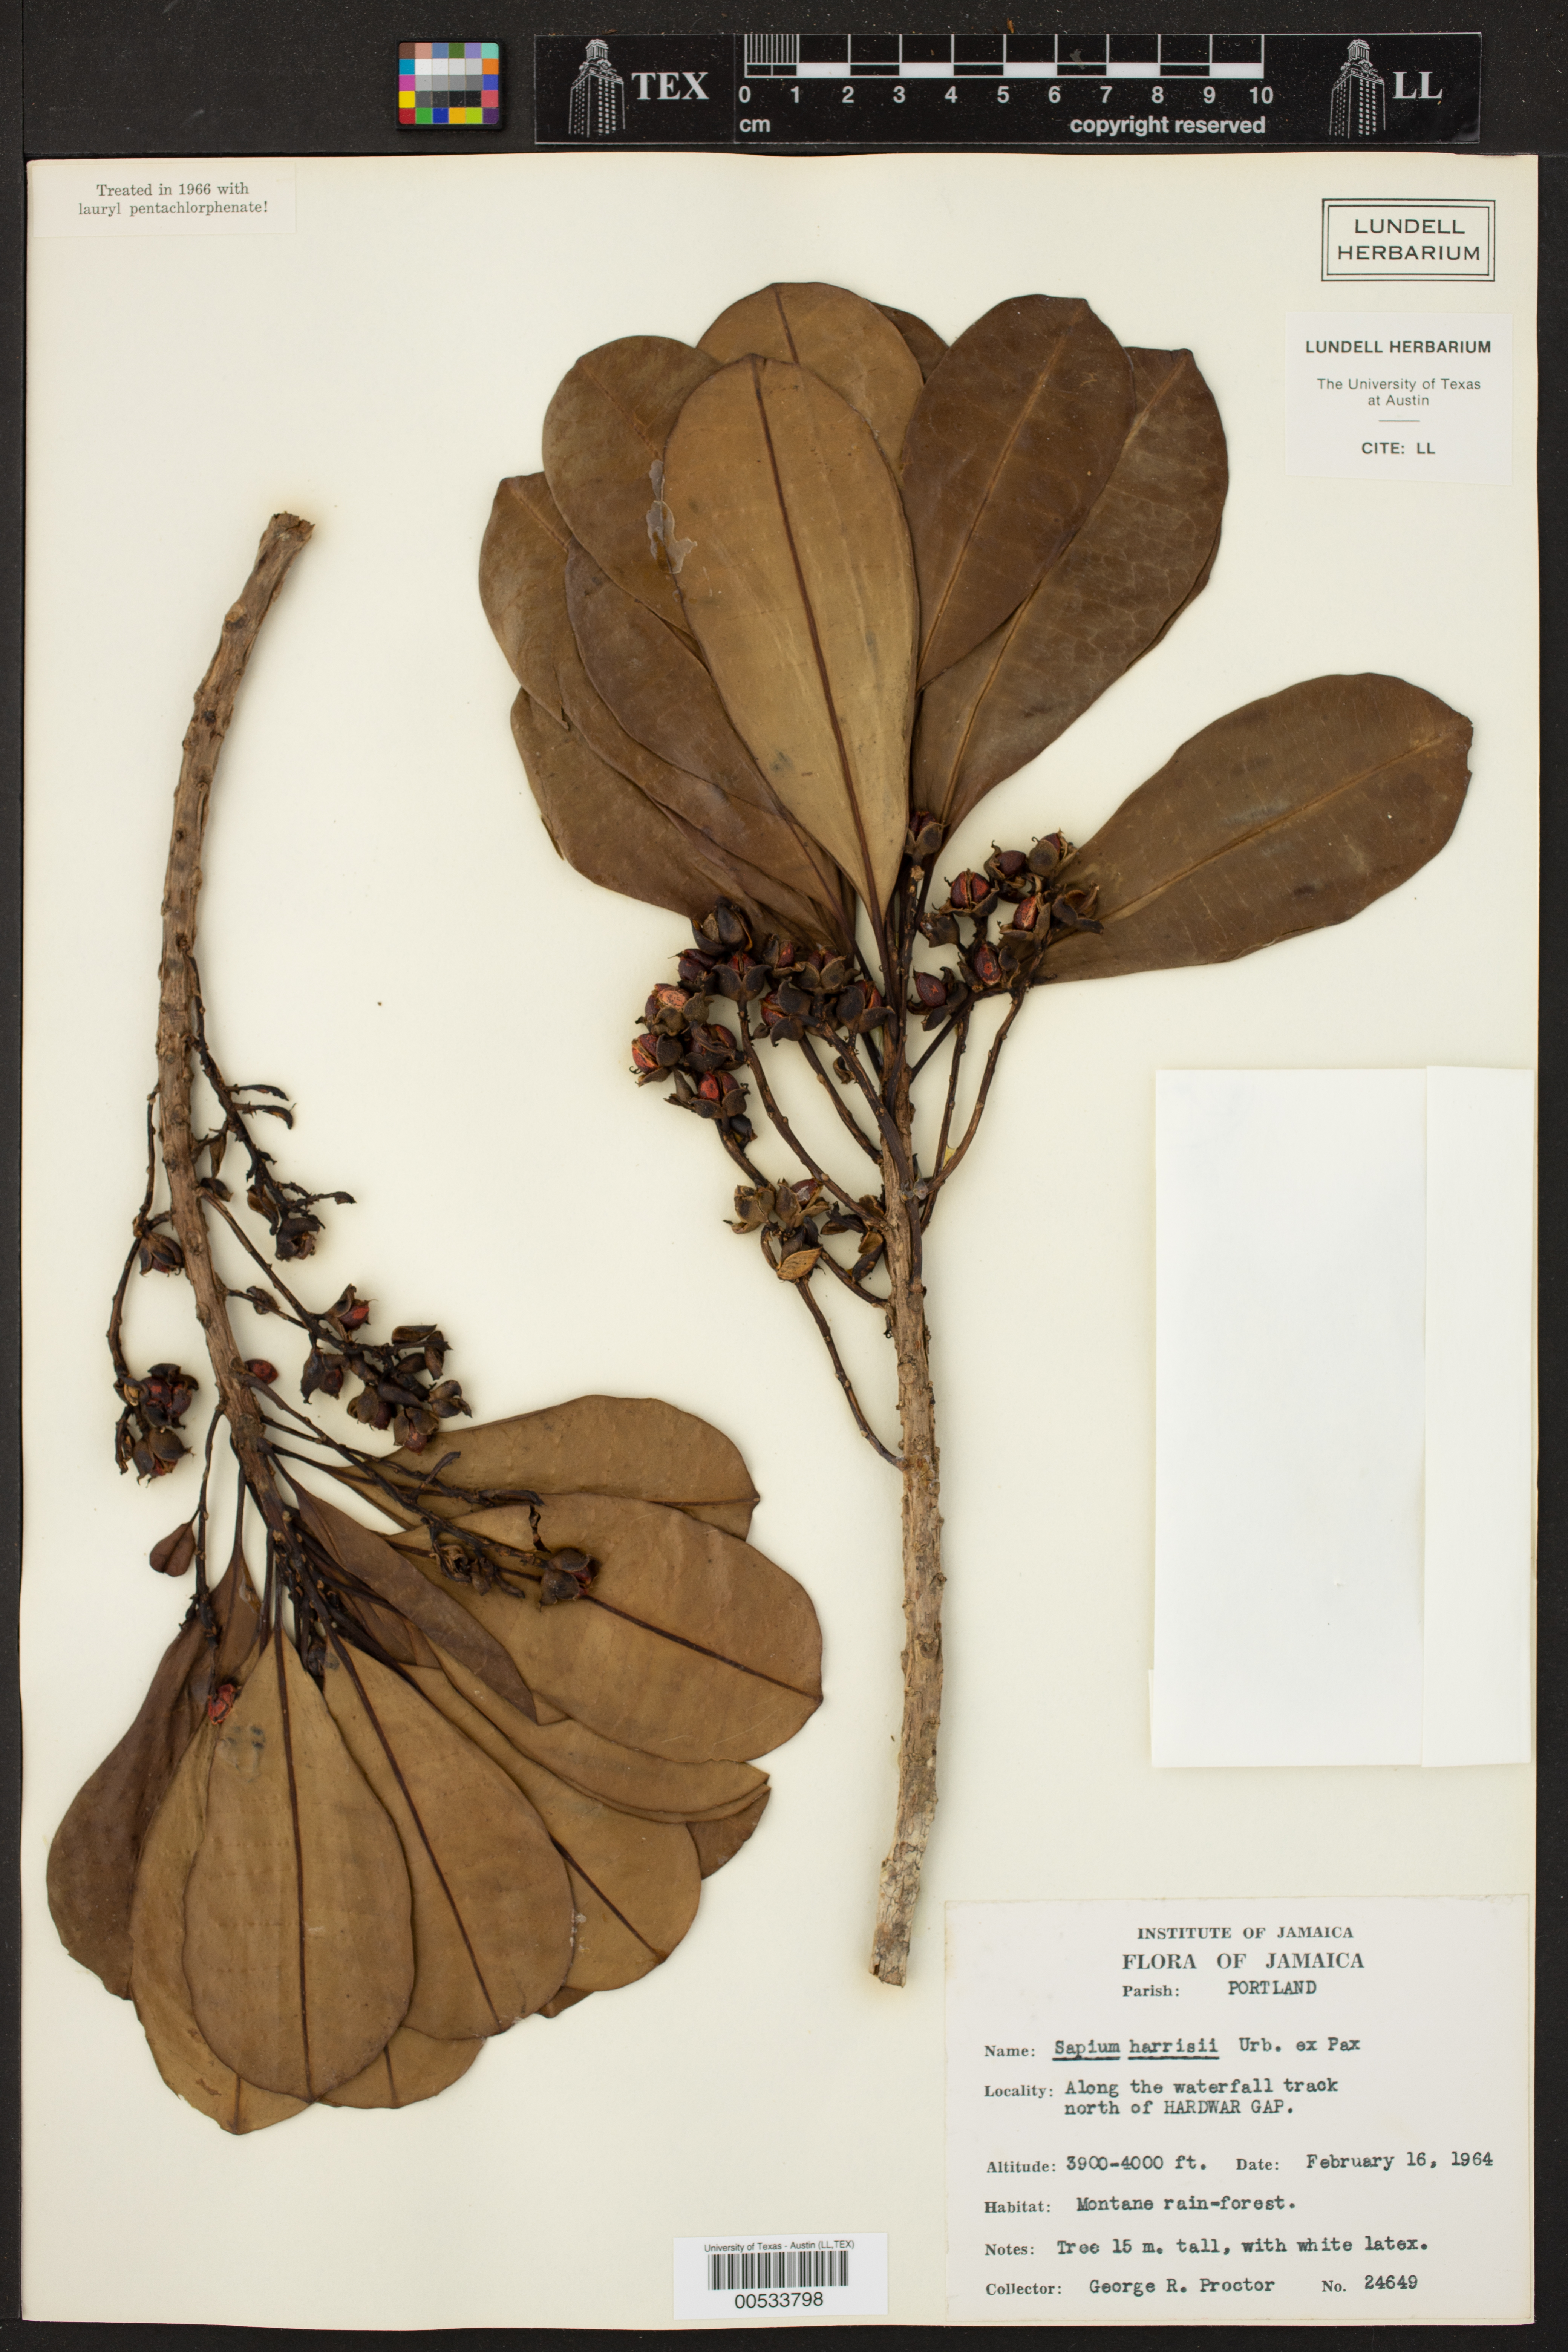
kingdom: Plantae
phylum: Tracheophyta
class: Magnoliopsida
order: Malpighiales
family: Euphorbiaceae
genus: Sapium
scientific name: Sapium harrisii
